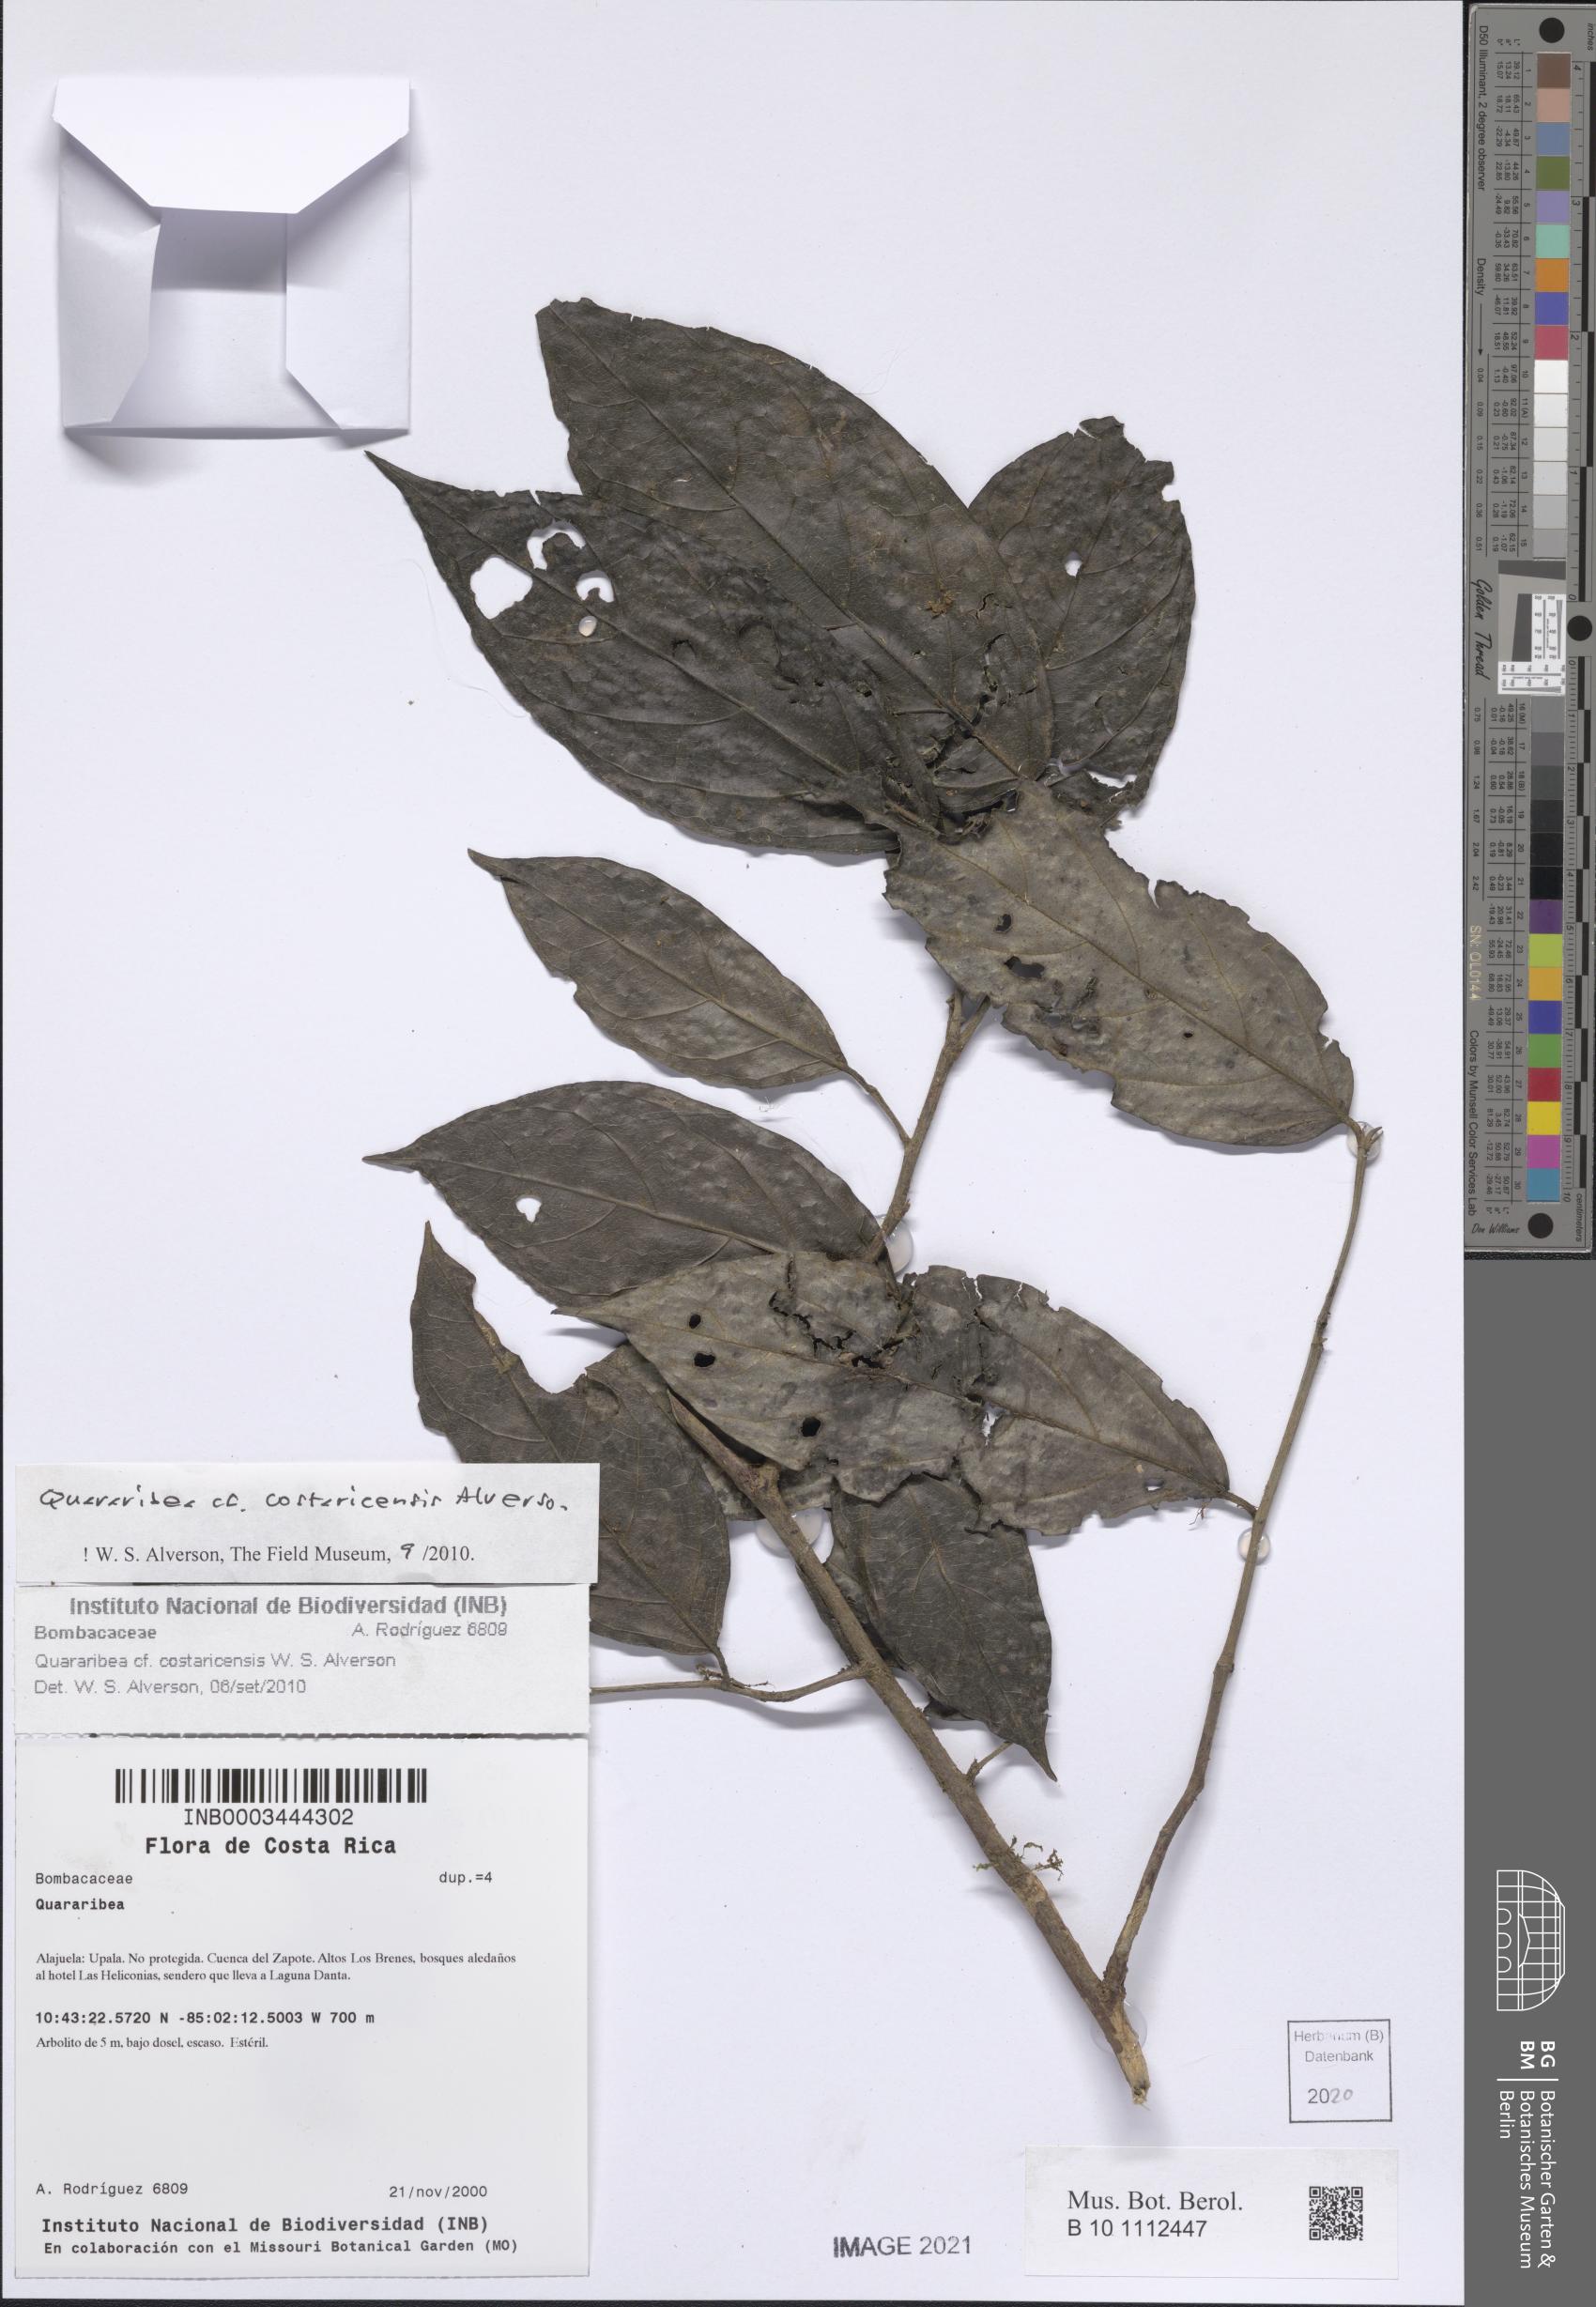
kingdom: Plantae
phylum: Tracheophyta
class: Magnoliopsida
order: Malvales
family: Malvaceae
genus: Quararibea
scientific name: Quararibea costaricensis
